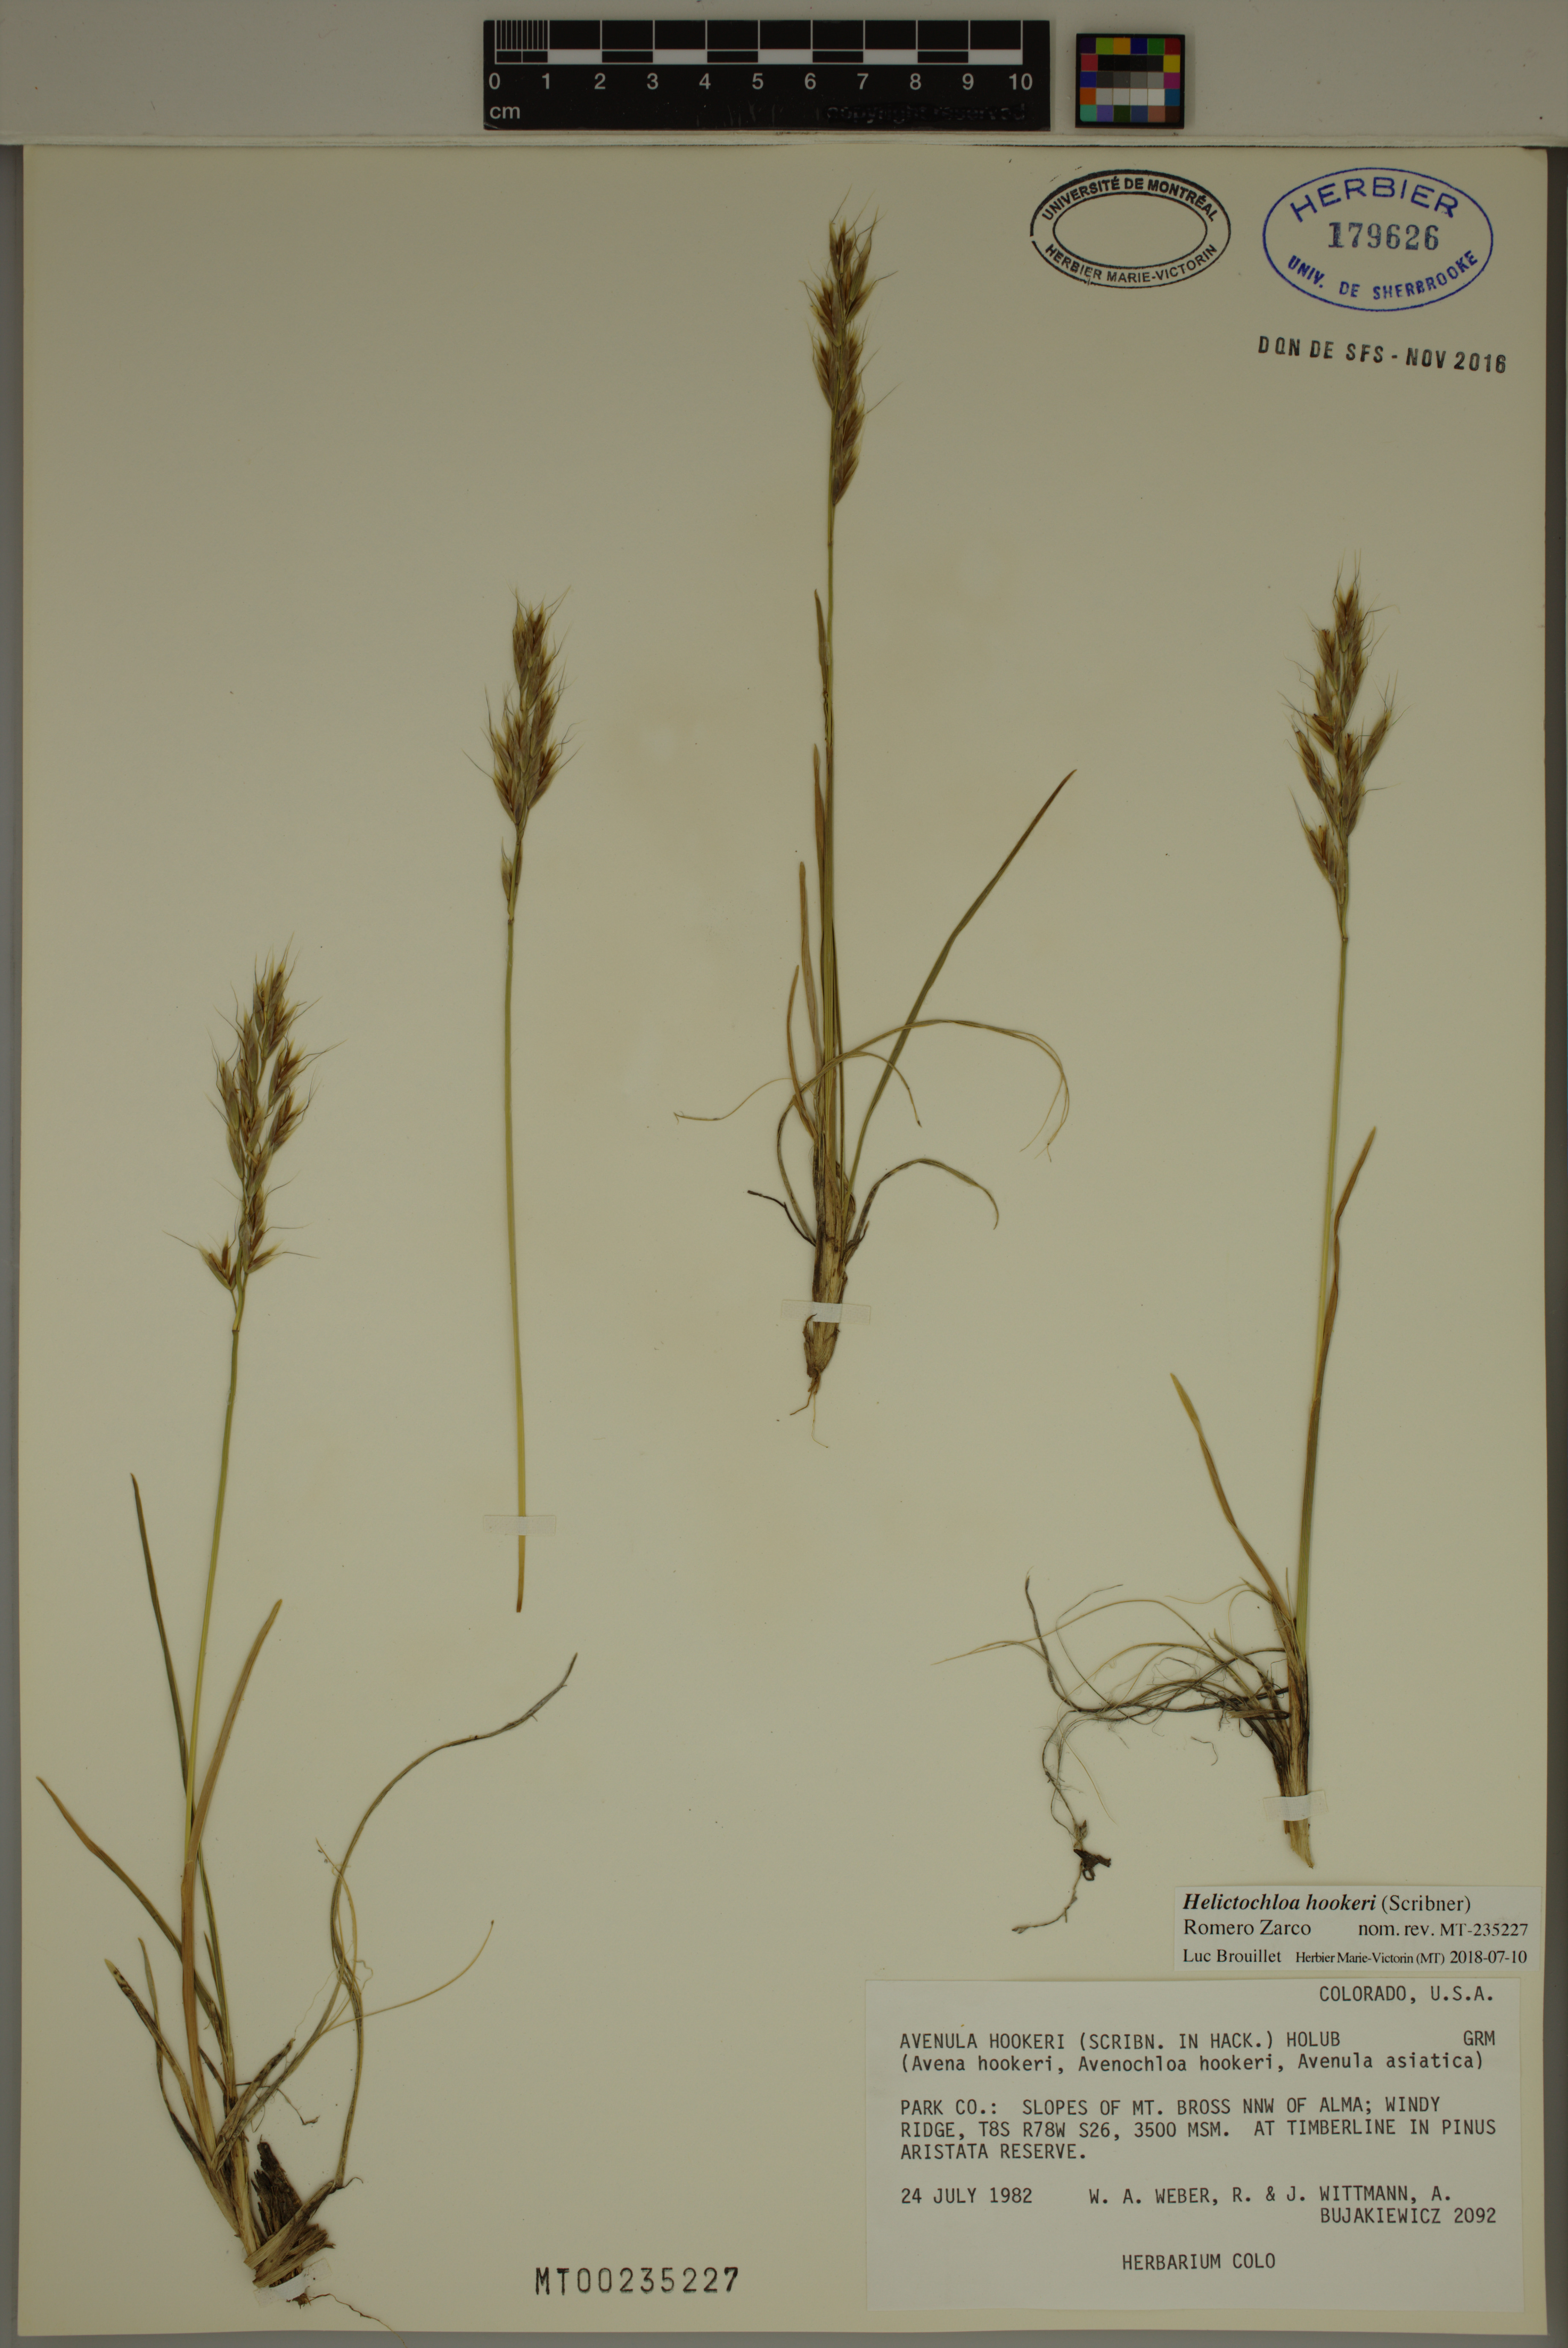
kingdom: Plantae
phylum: Tracheophyta
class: Liliopsida
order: Poales
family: Poaceae
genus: Helictochloa
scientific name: Helictochloa hookeri
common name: Hooker's alpine oatgrass
